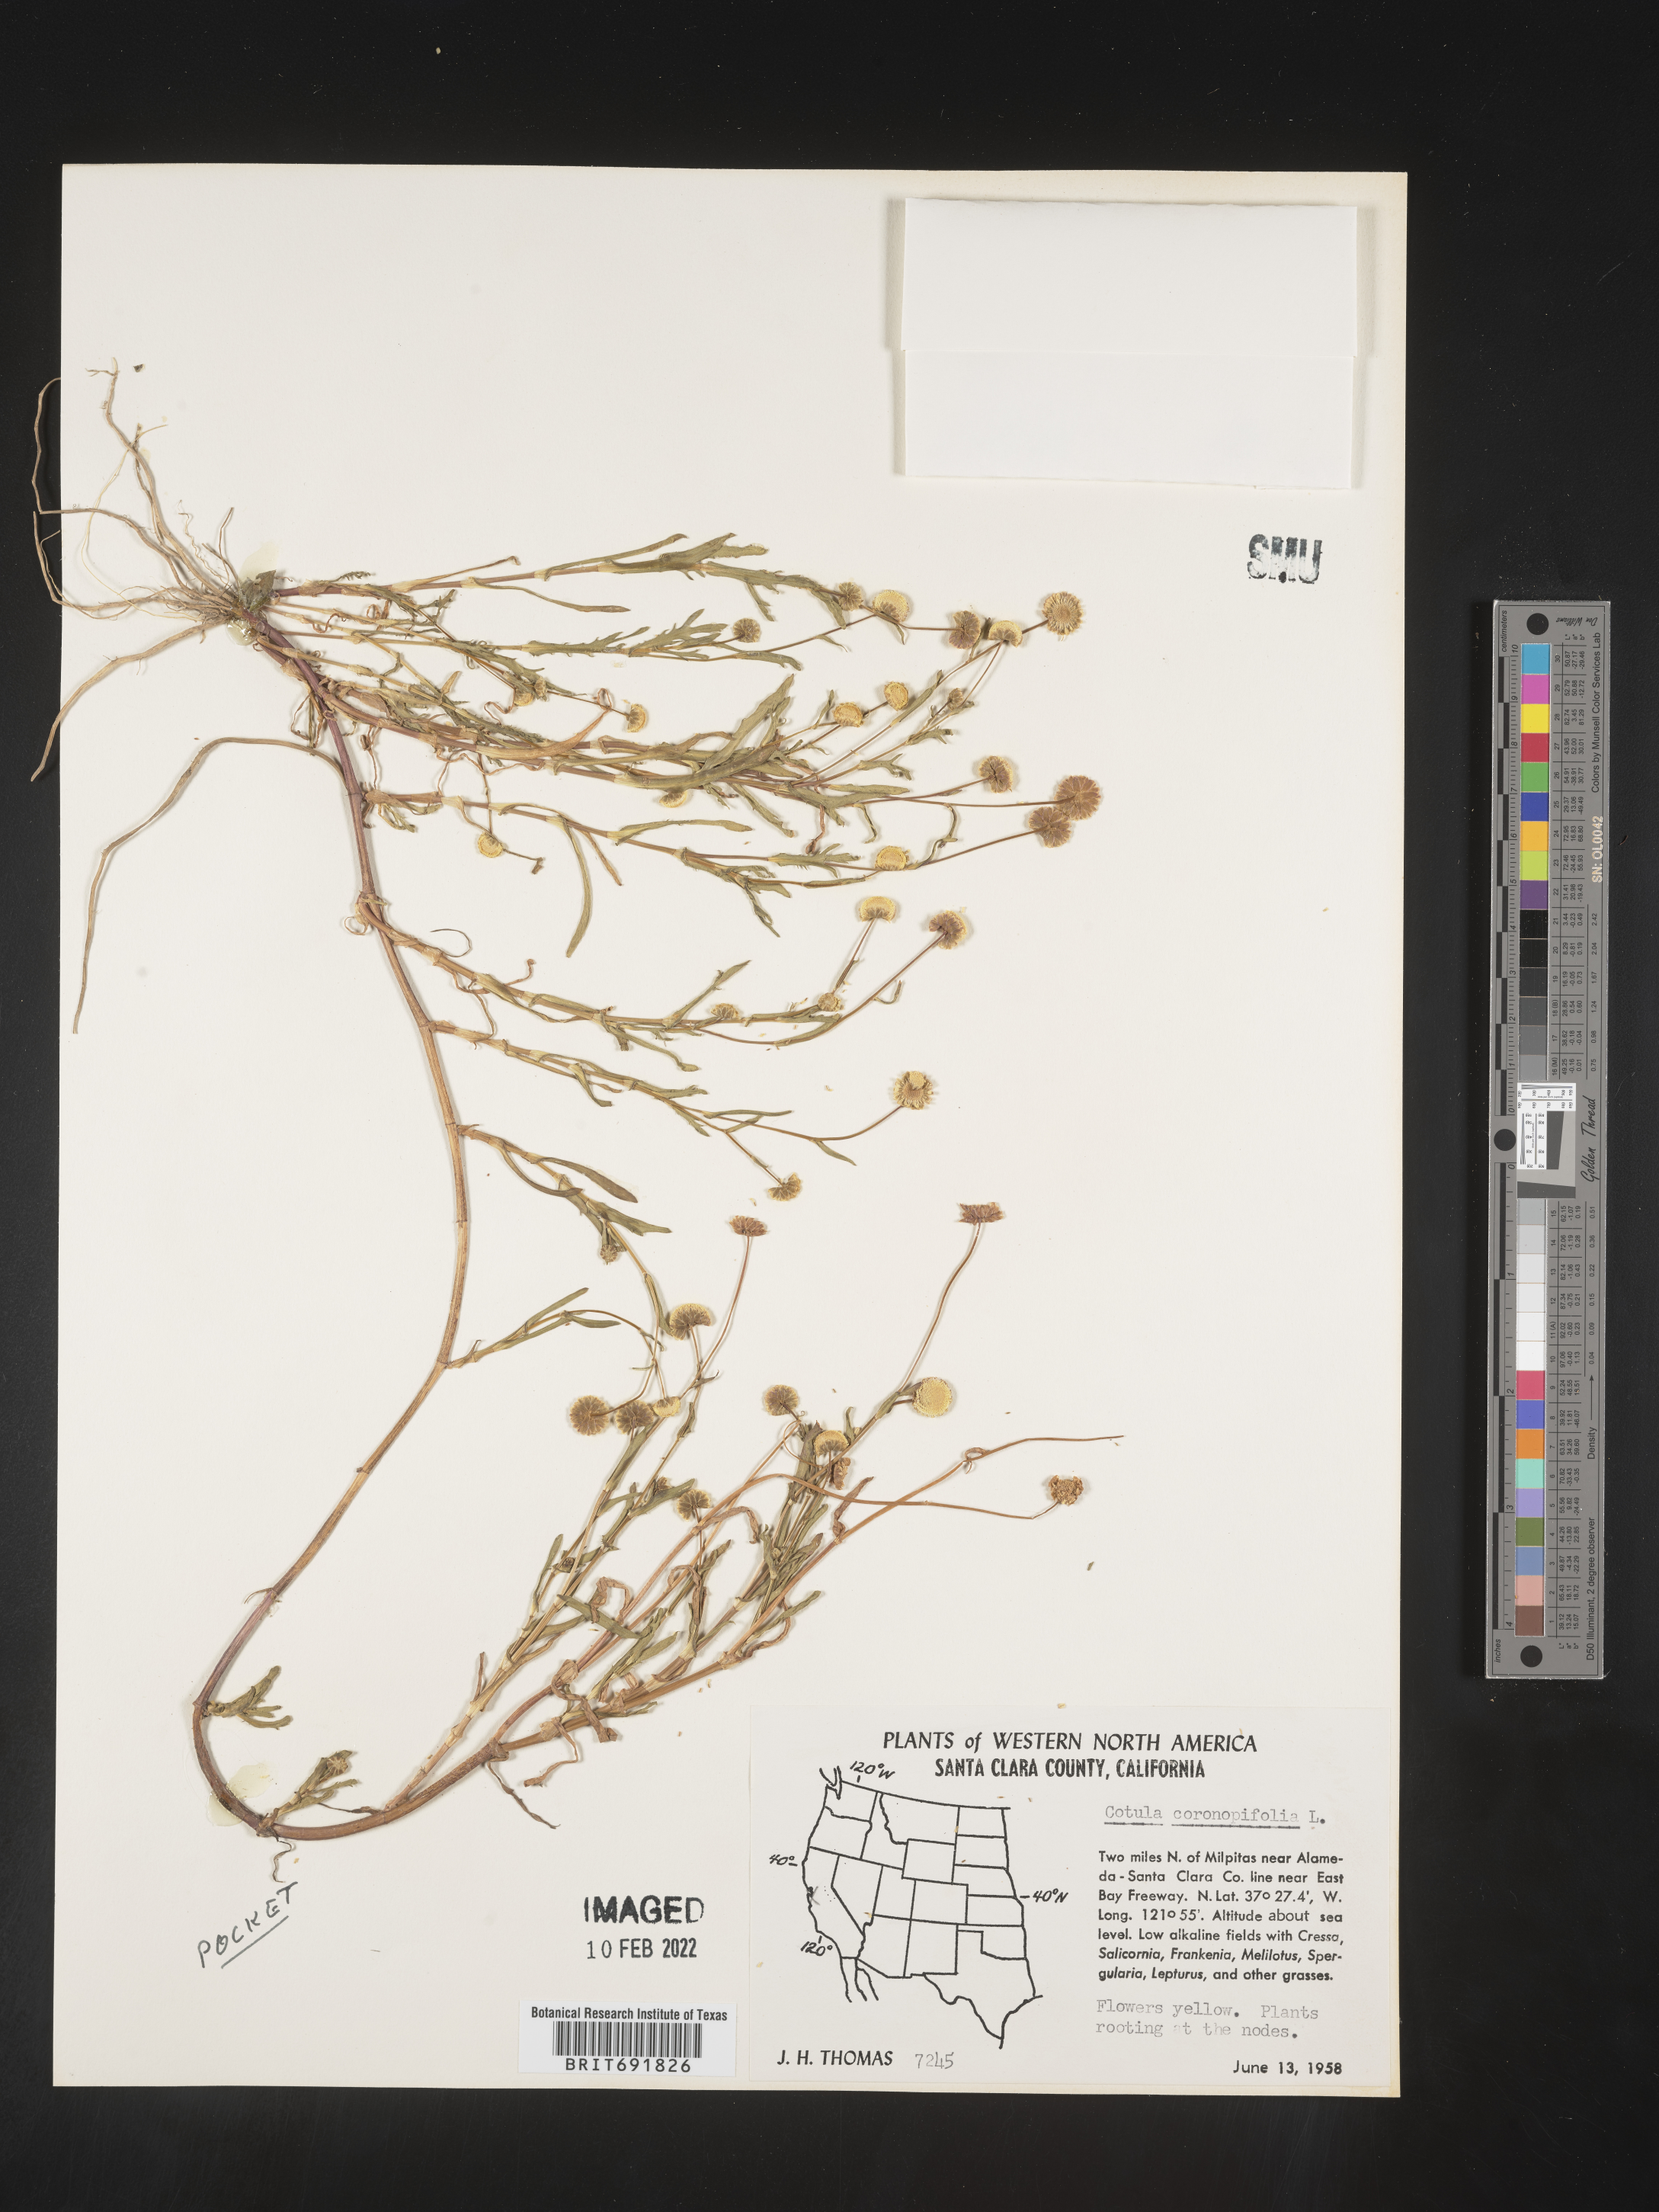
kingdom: Plantae
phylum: Tracheophyta
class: Magnoliopsida
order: Asterales
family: Asteraceae
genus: Cotula
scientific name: Cotula
